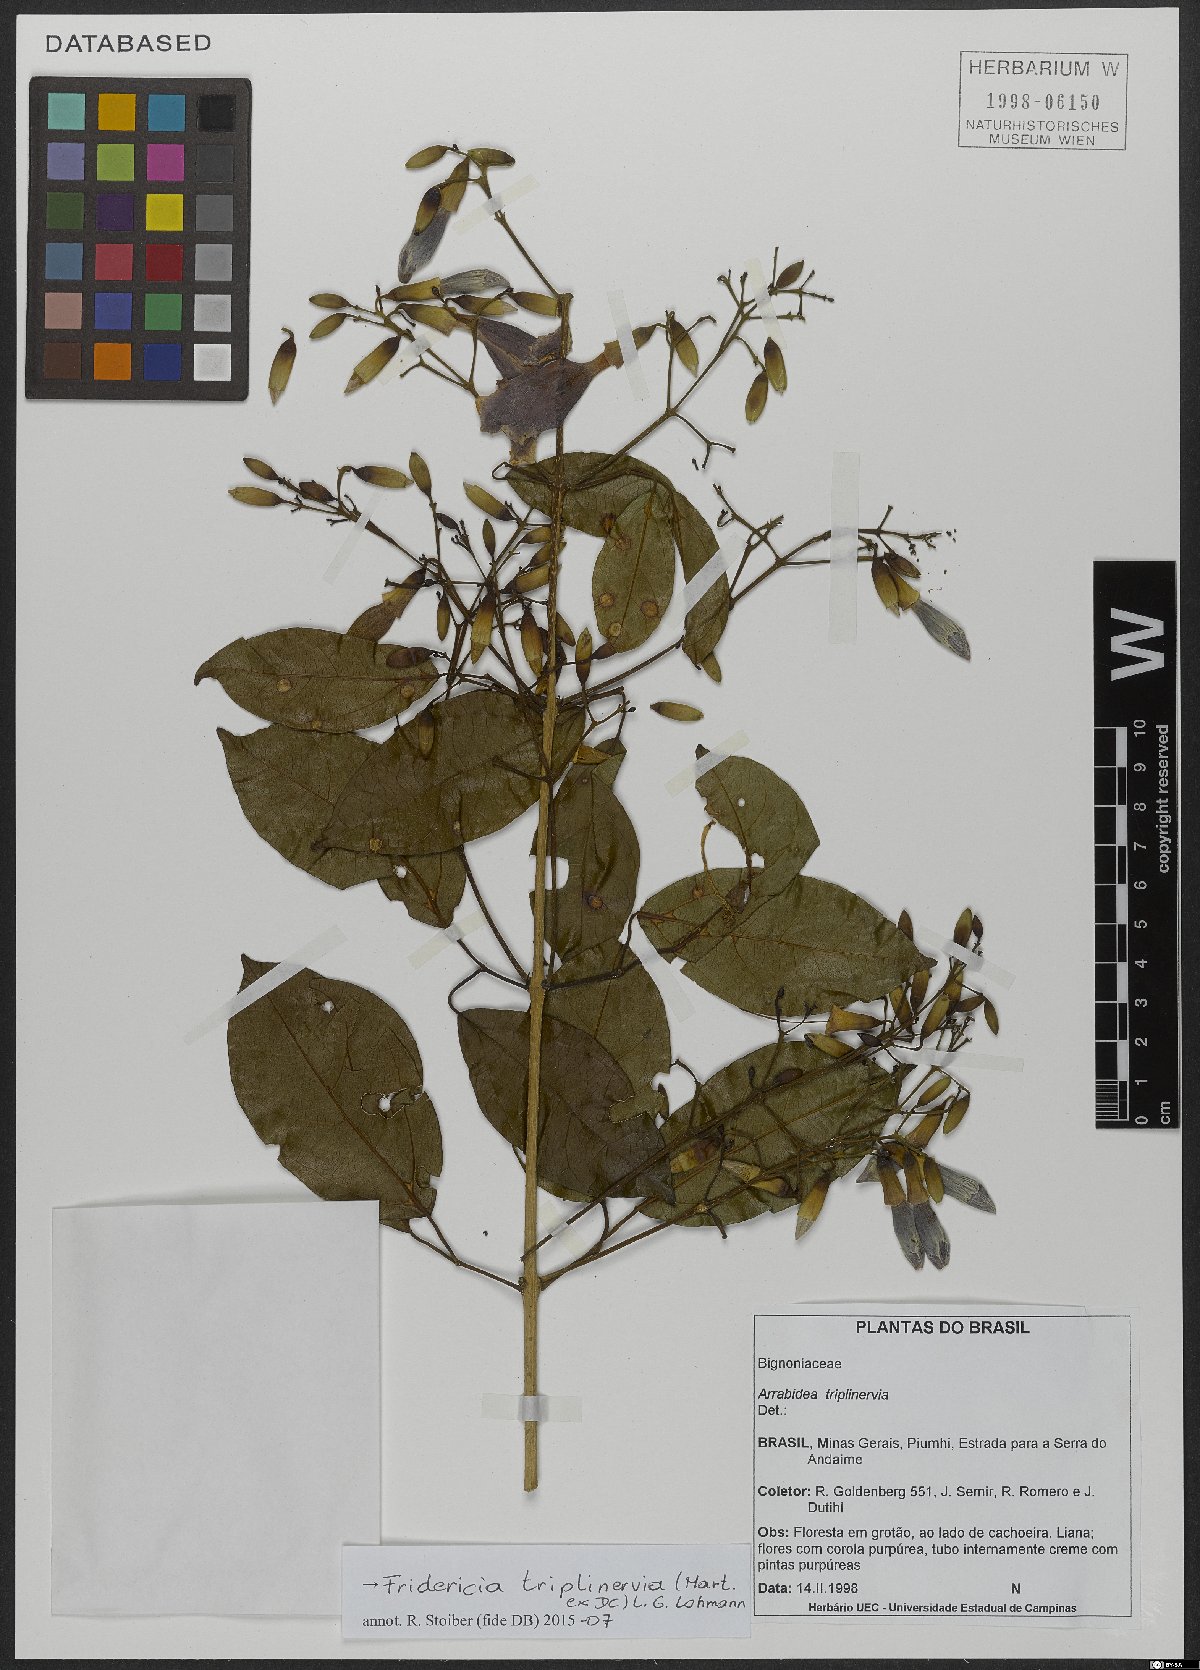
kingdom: Plantae
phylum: Tracheophyta
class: Magnoliopsida
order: Lamiales
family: Bignoniaceae
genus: Fridericia
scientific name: Fridericia triplinervia
